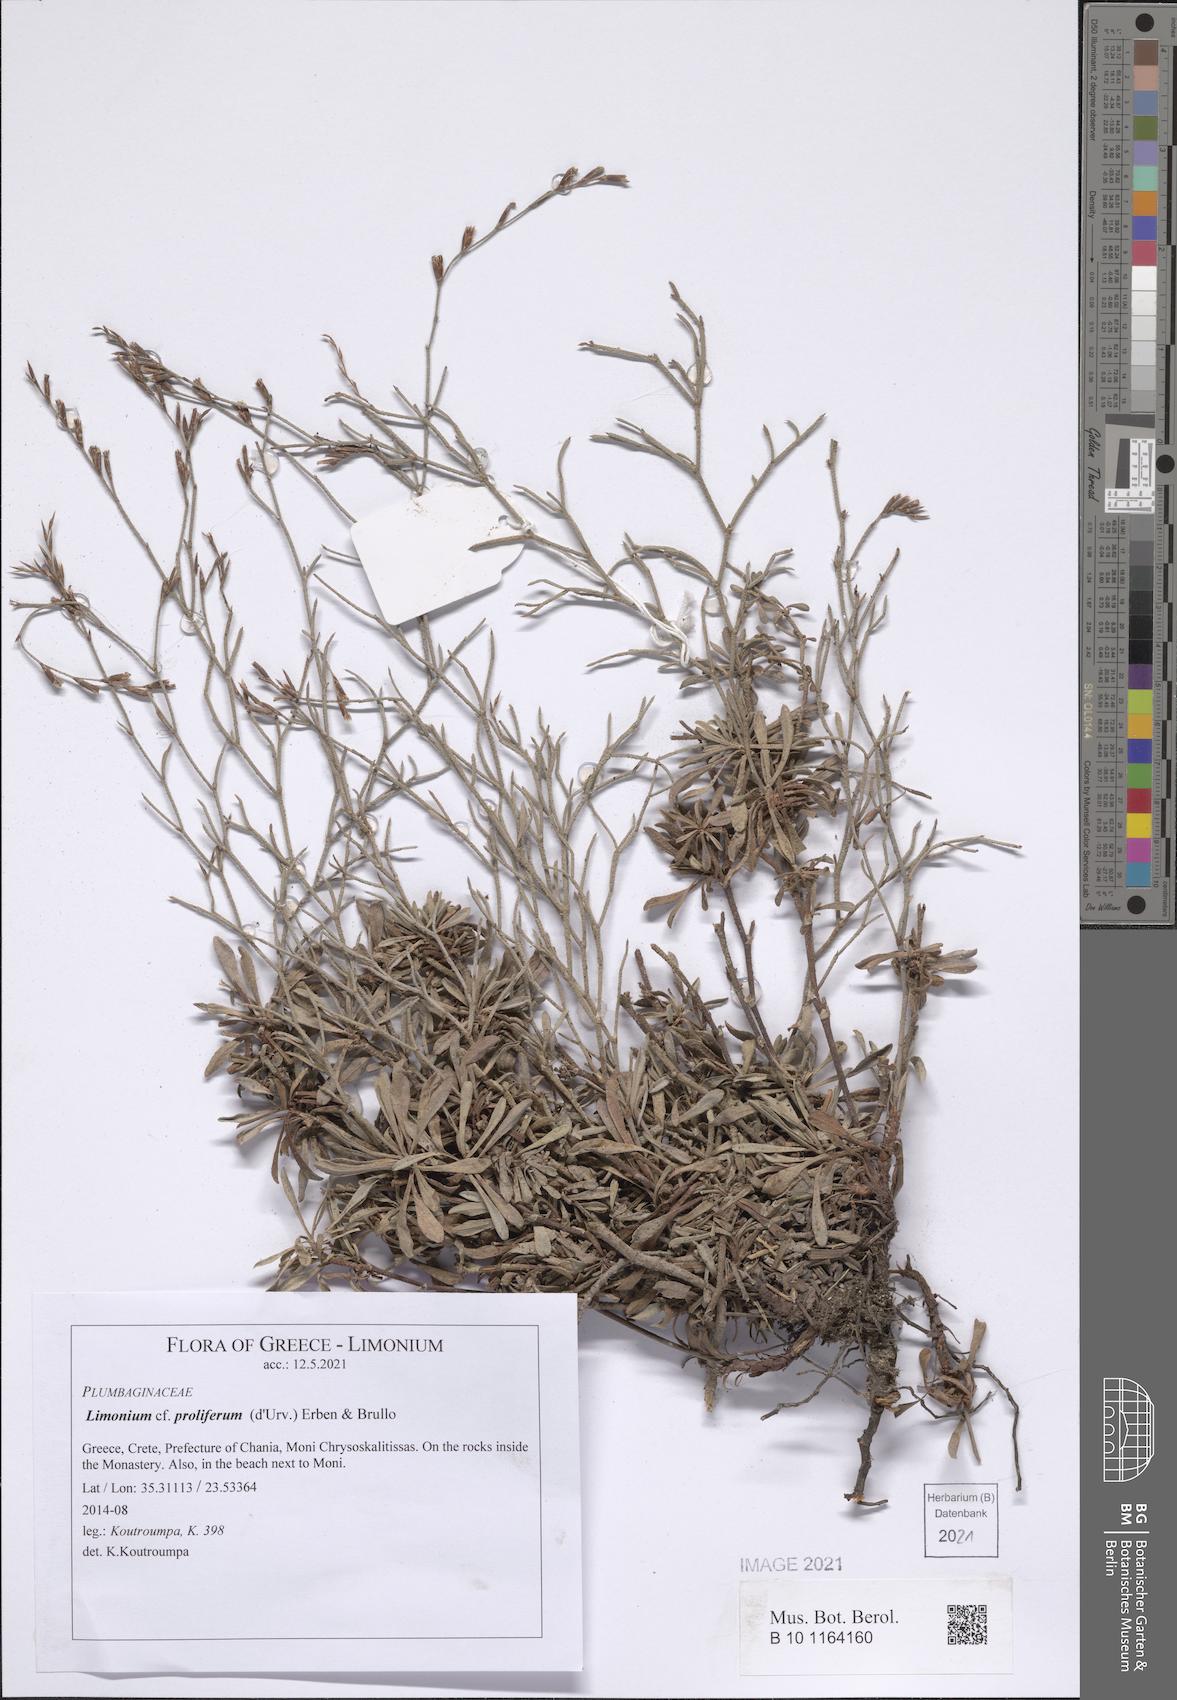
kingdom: Plantae
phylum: Tracheophyta
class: Magnoliopsida
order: Caryophyllales
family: Plumbaginaceae
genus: Limonium
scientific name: Limonium proliferum
